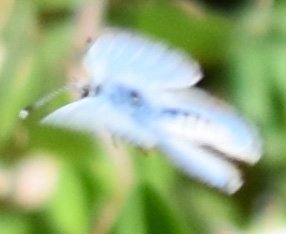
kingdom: Animalia
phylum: Arthropoda
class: Insecta
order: Lepidoptera
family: Lycaenidae
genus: Celastrina
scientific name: Celastrina
